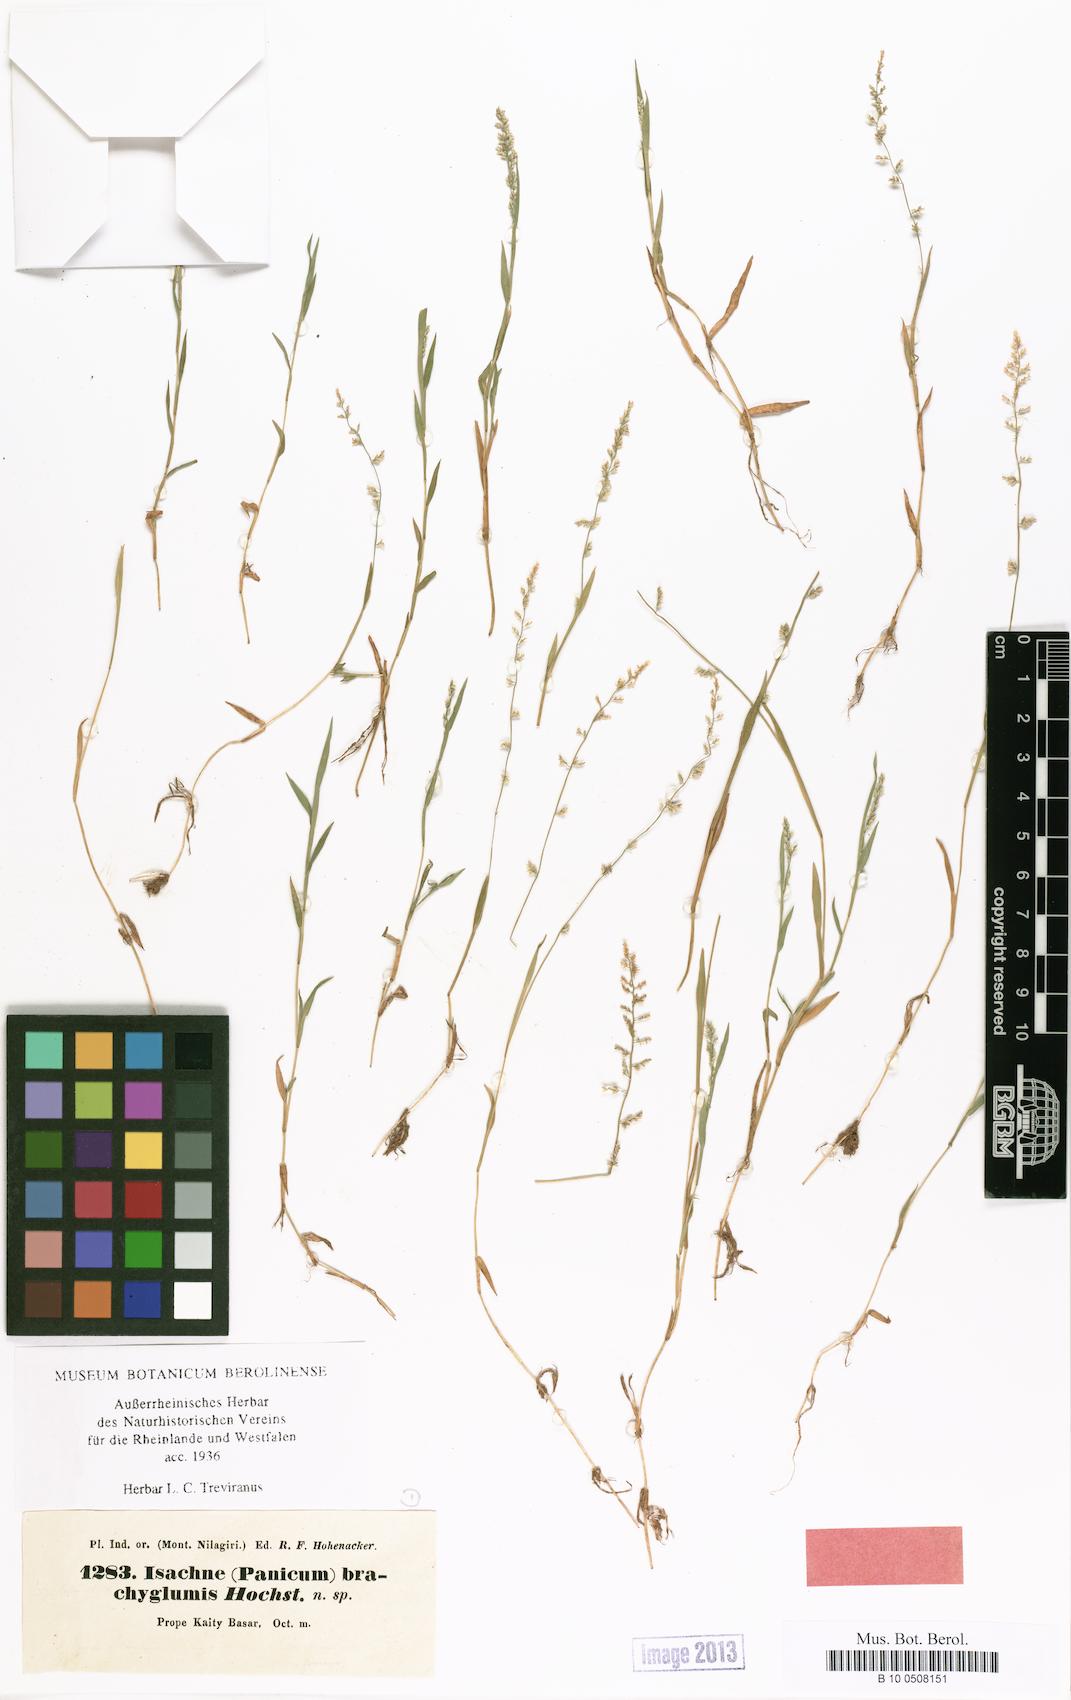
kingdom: Plantae
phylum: Tracheophyta
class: Liliopsida
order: Poales
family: Poaceae
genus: Coelachne
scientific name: Coelachne simpliciuscula
